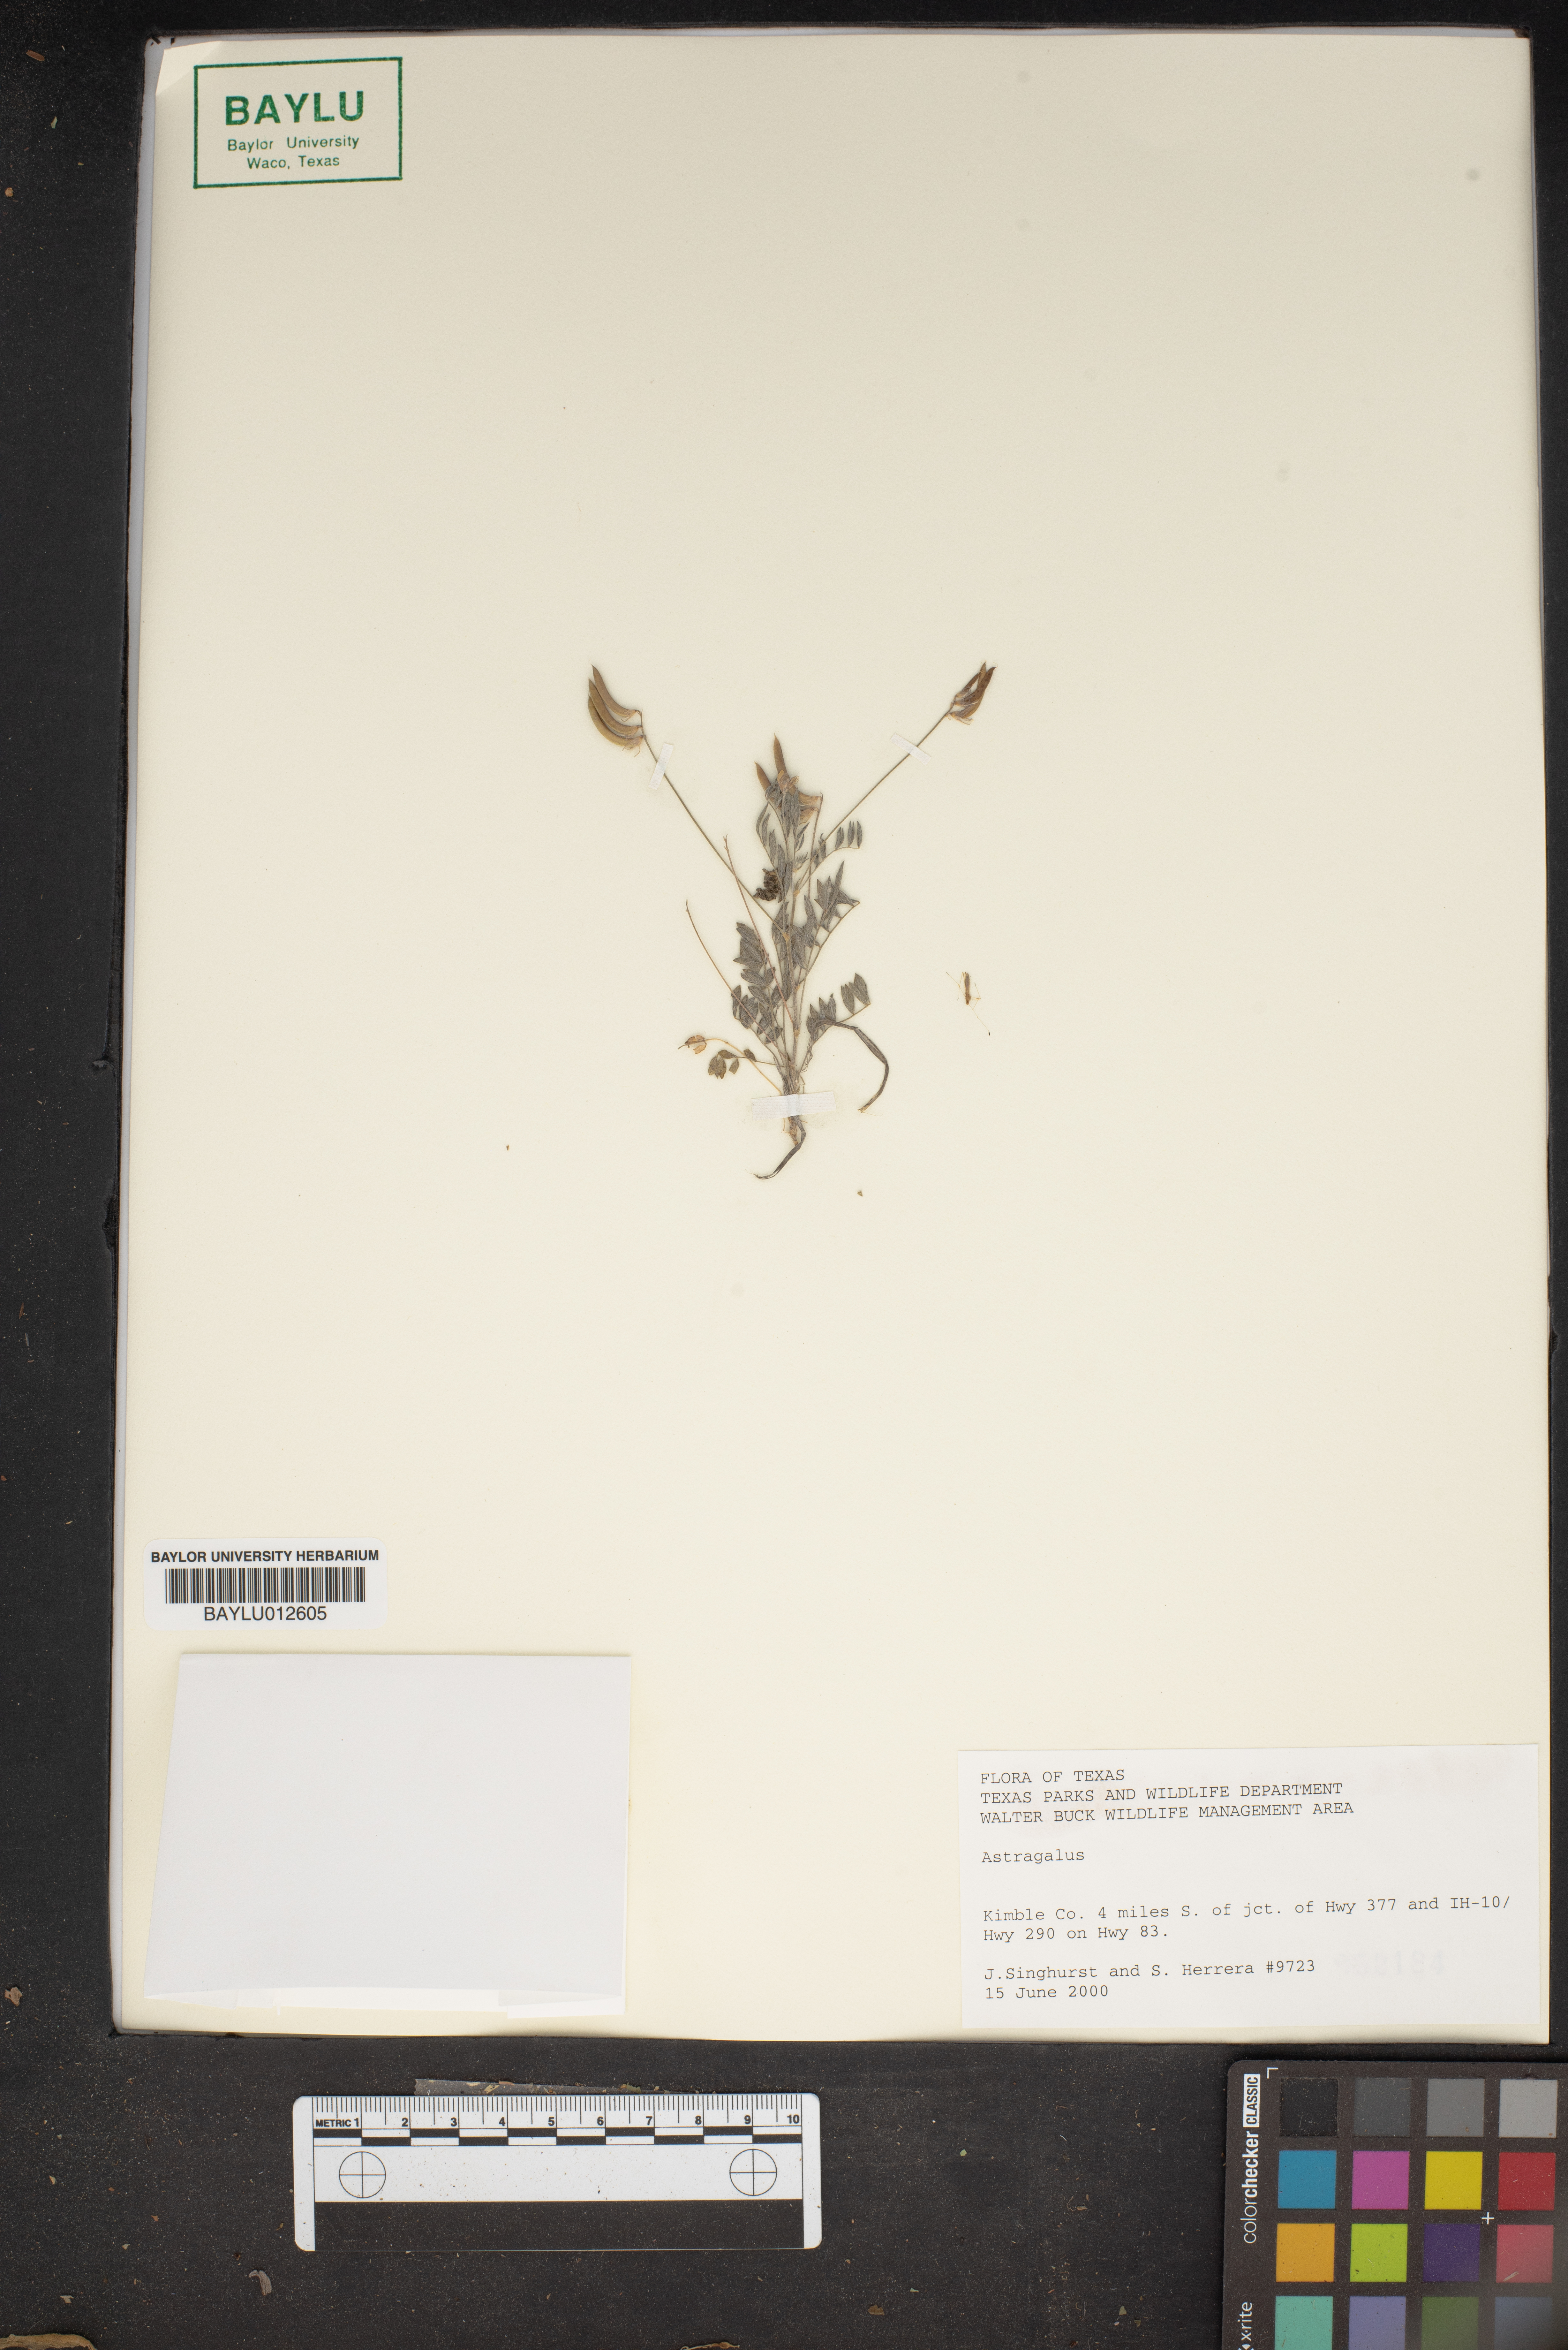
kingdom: Plantae
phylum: Tracheophyta
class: Magnoliopsida
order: Fabales
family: Fabaceae
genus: Astragalus
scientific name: Astragalus
